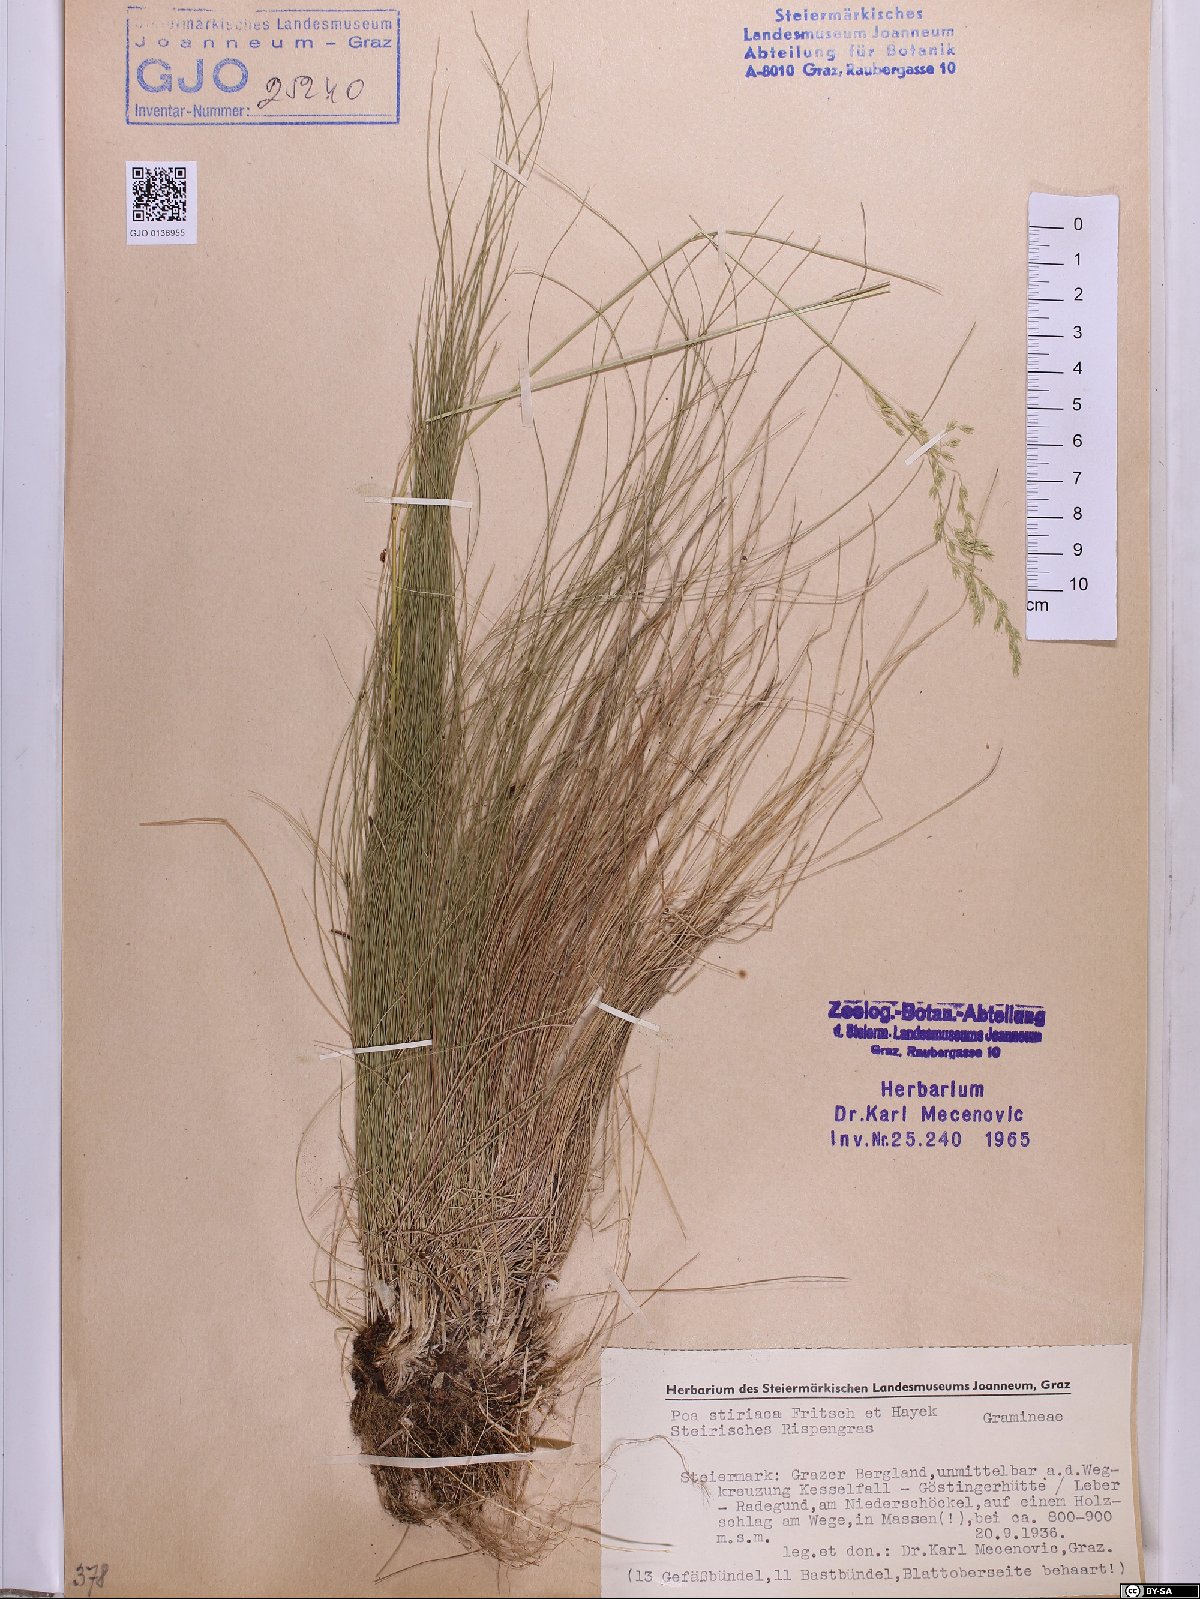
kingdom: Plantae
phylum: Tracheophyta
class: Liliopsida
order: Poales
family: Poaceae
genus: Poa
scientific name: Poa stiriaca
